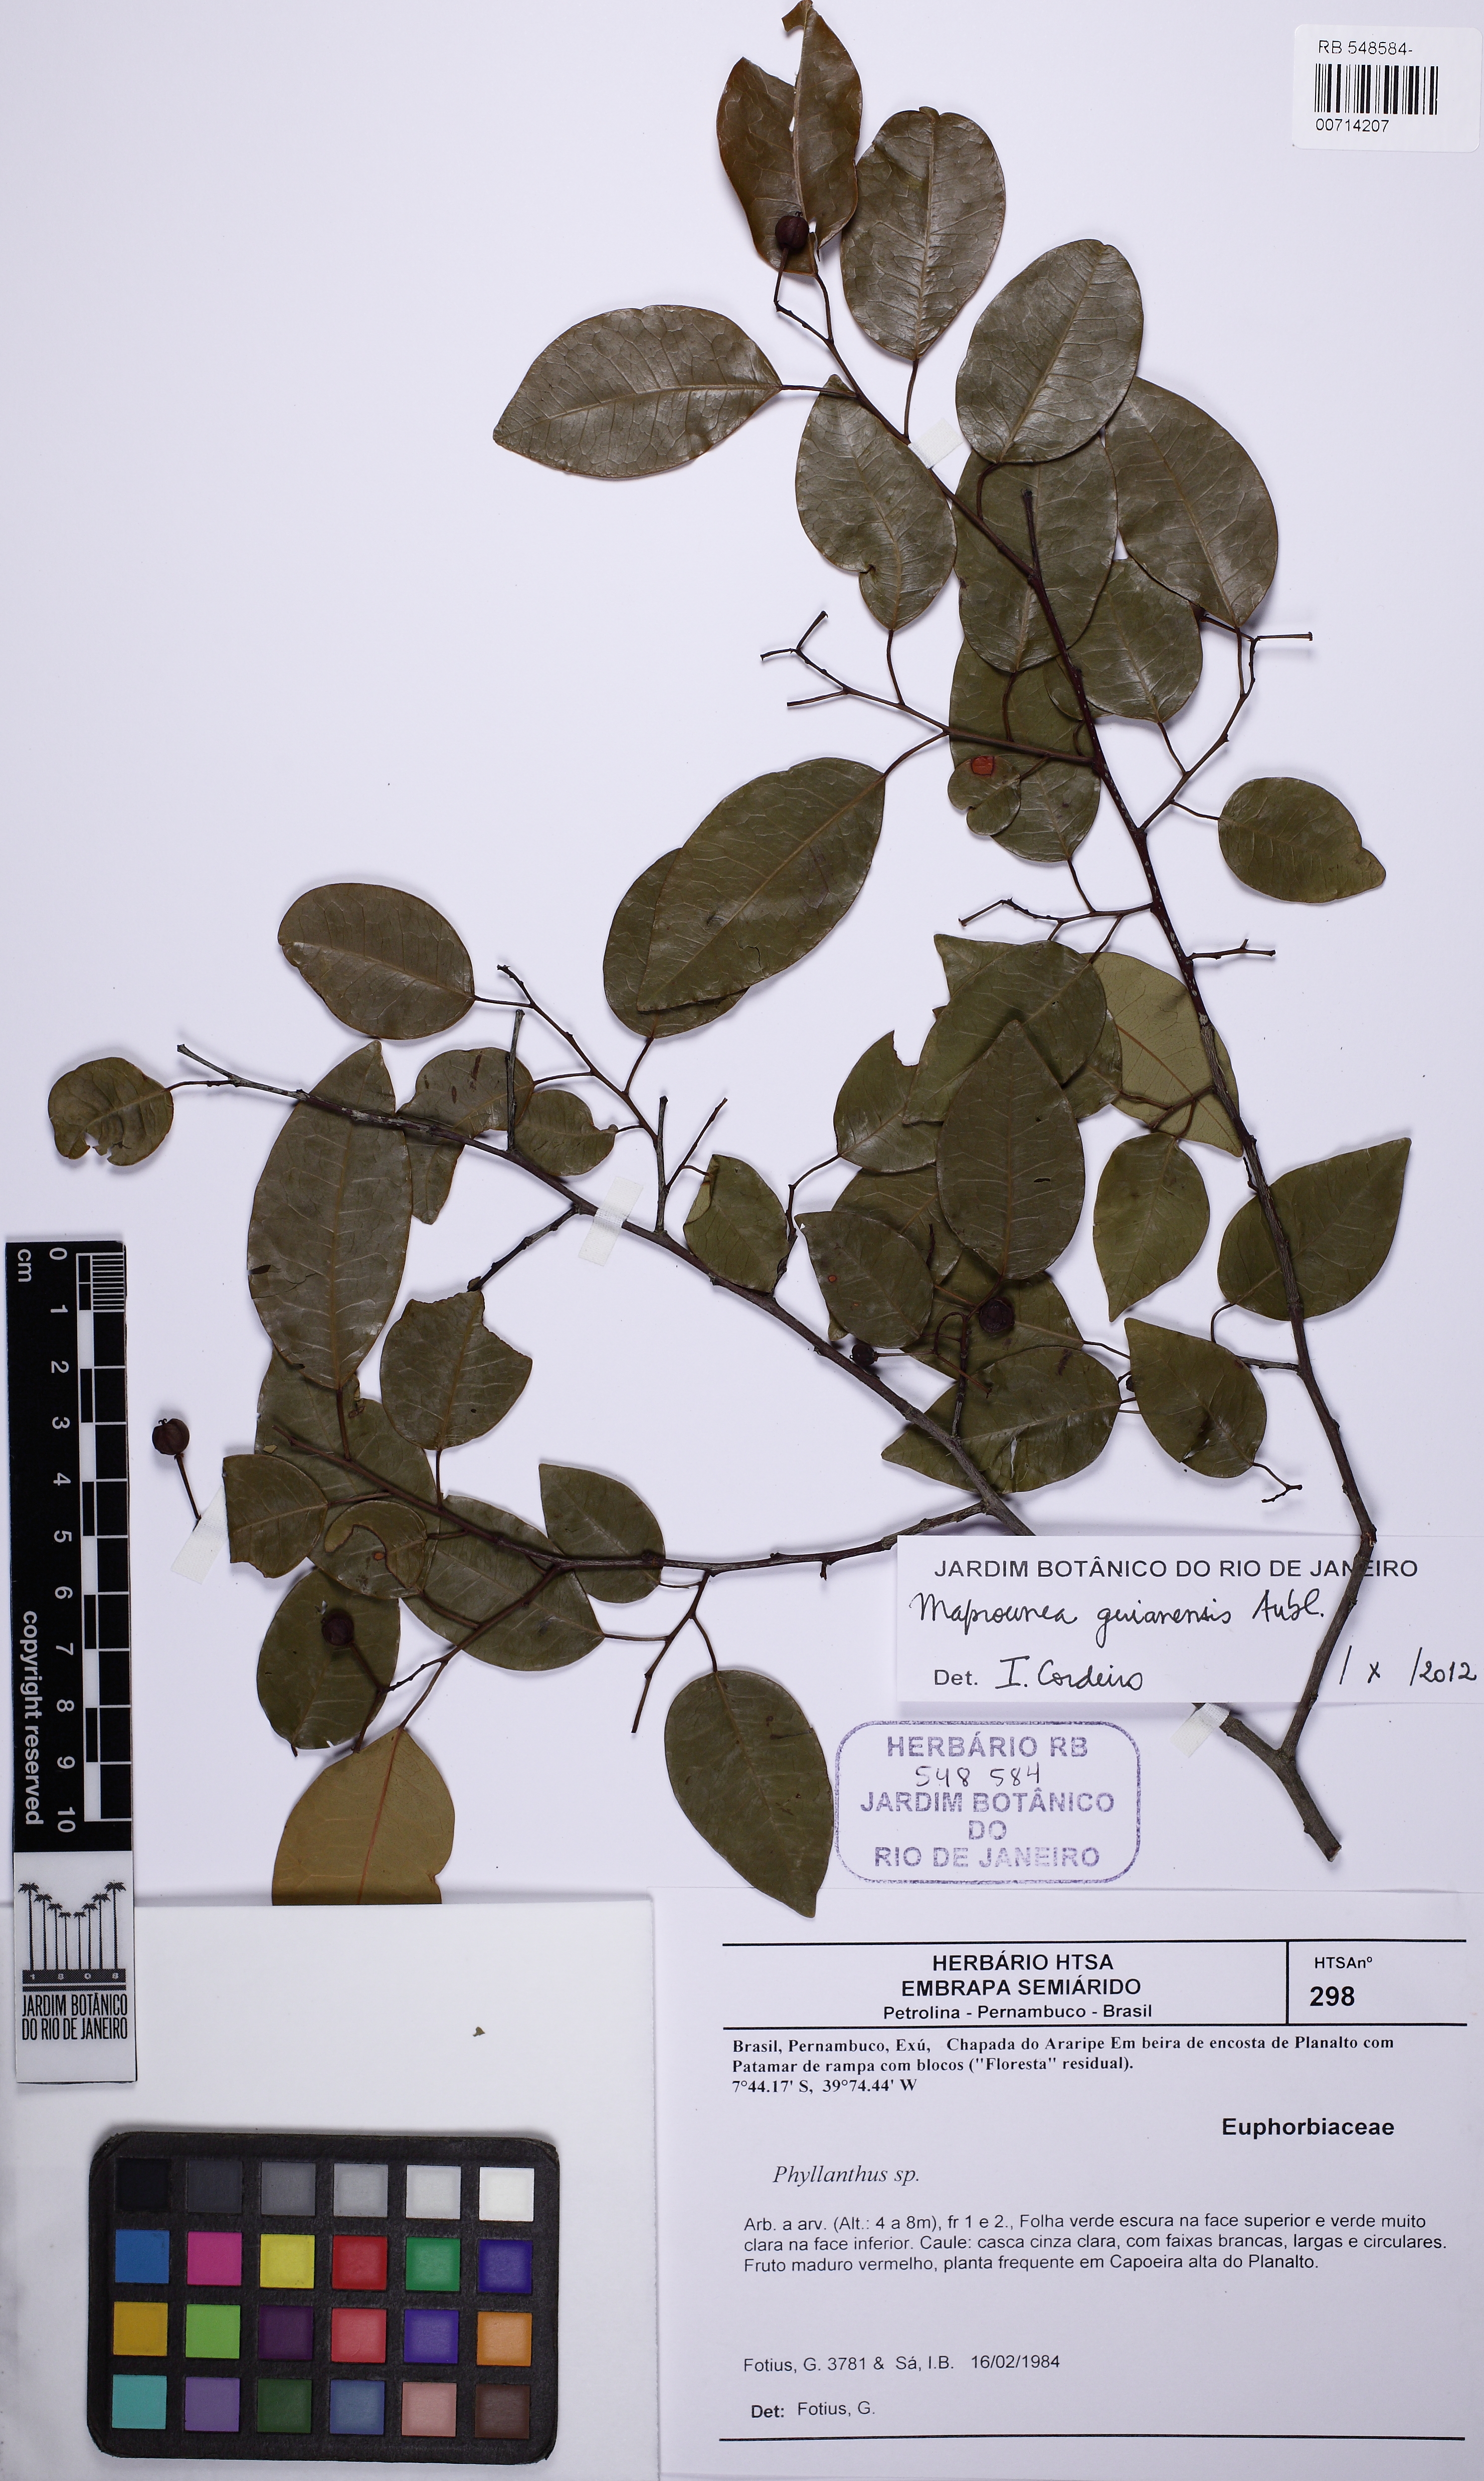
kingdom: Plantae
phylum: Tracheophyta
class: Magnoliopsida
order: Malpighiales
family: Euphorbiaceae
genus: Maprounea
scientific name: Maprounea guianensis
